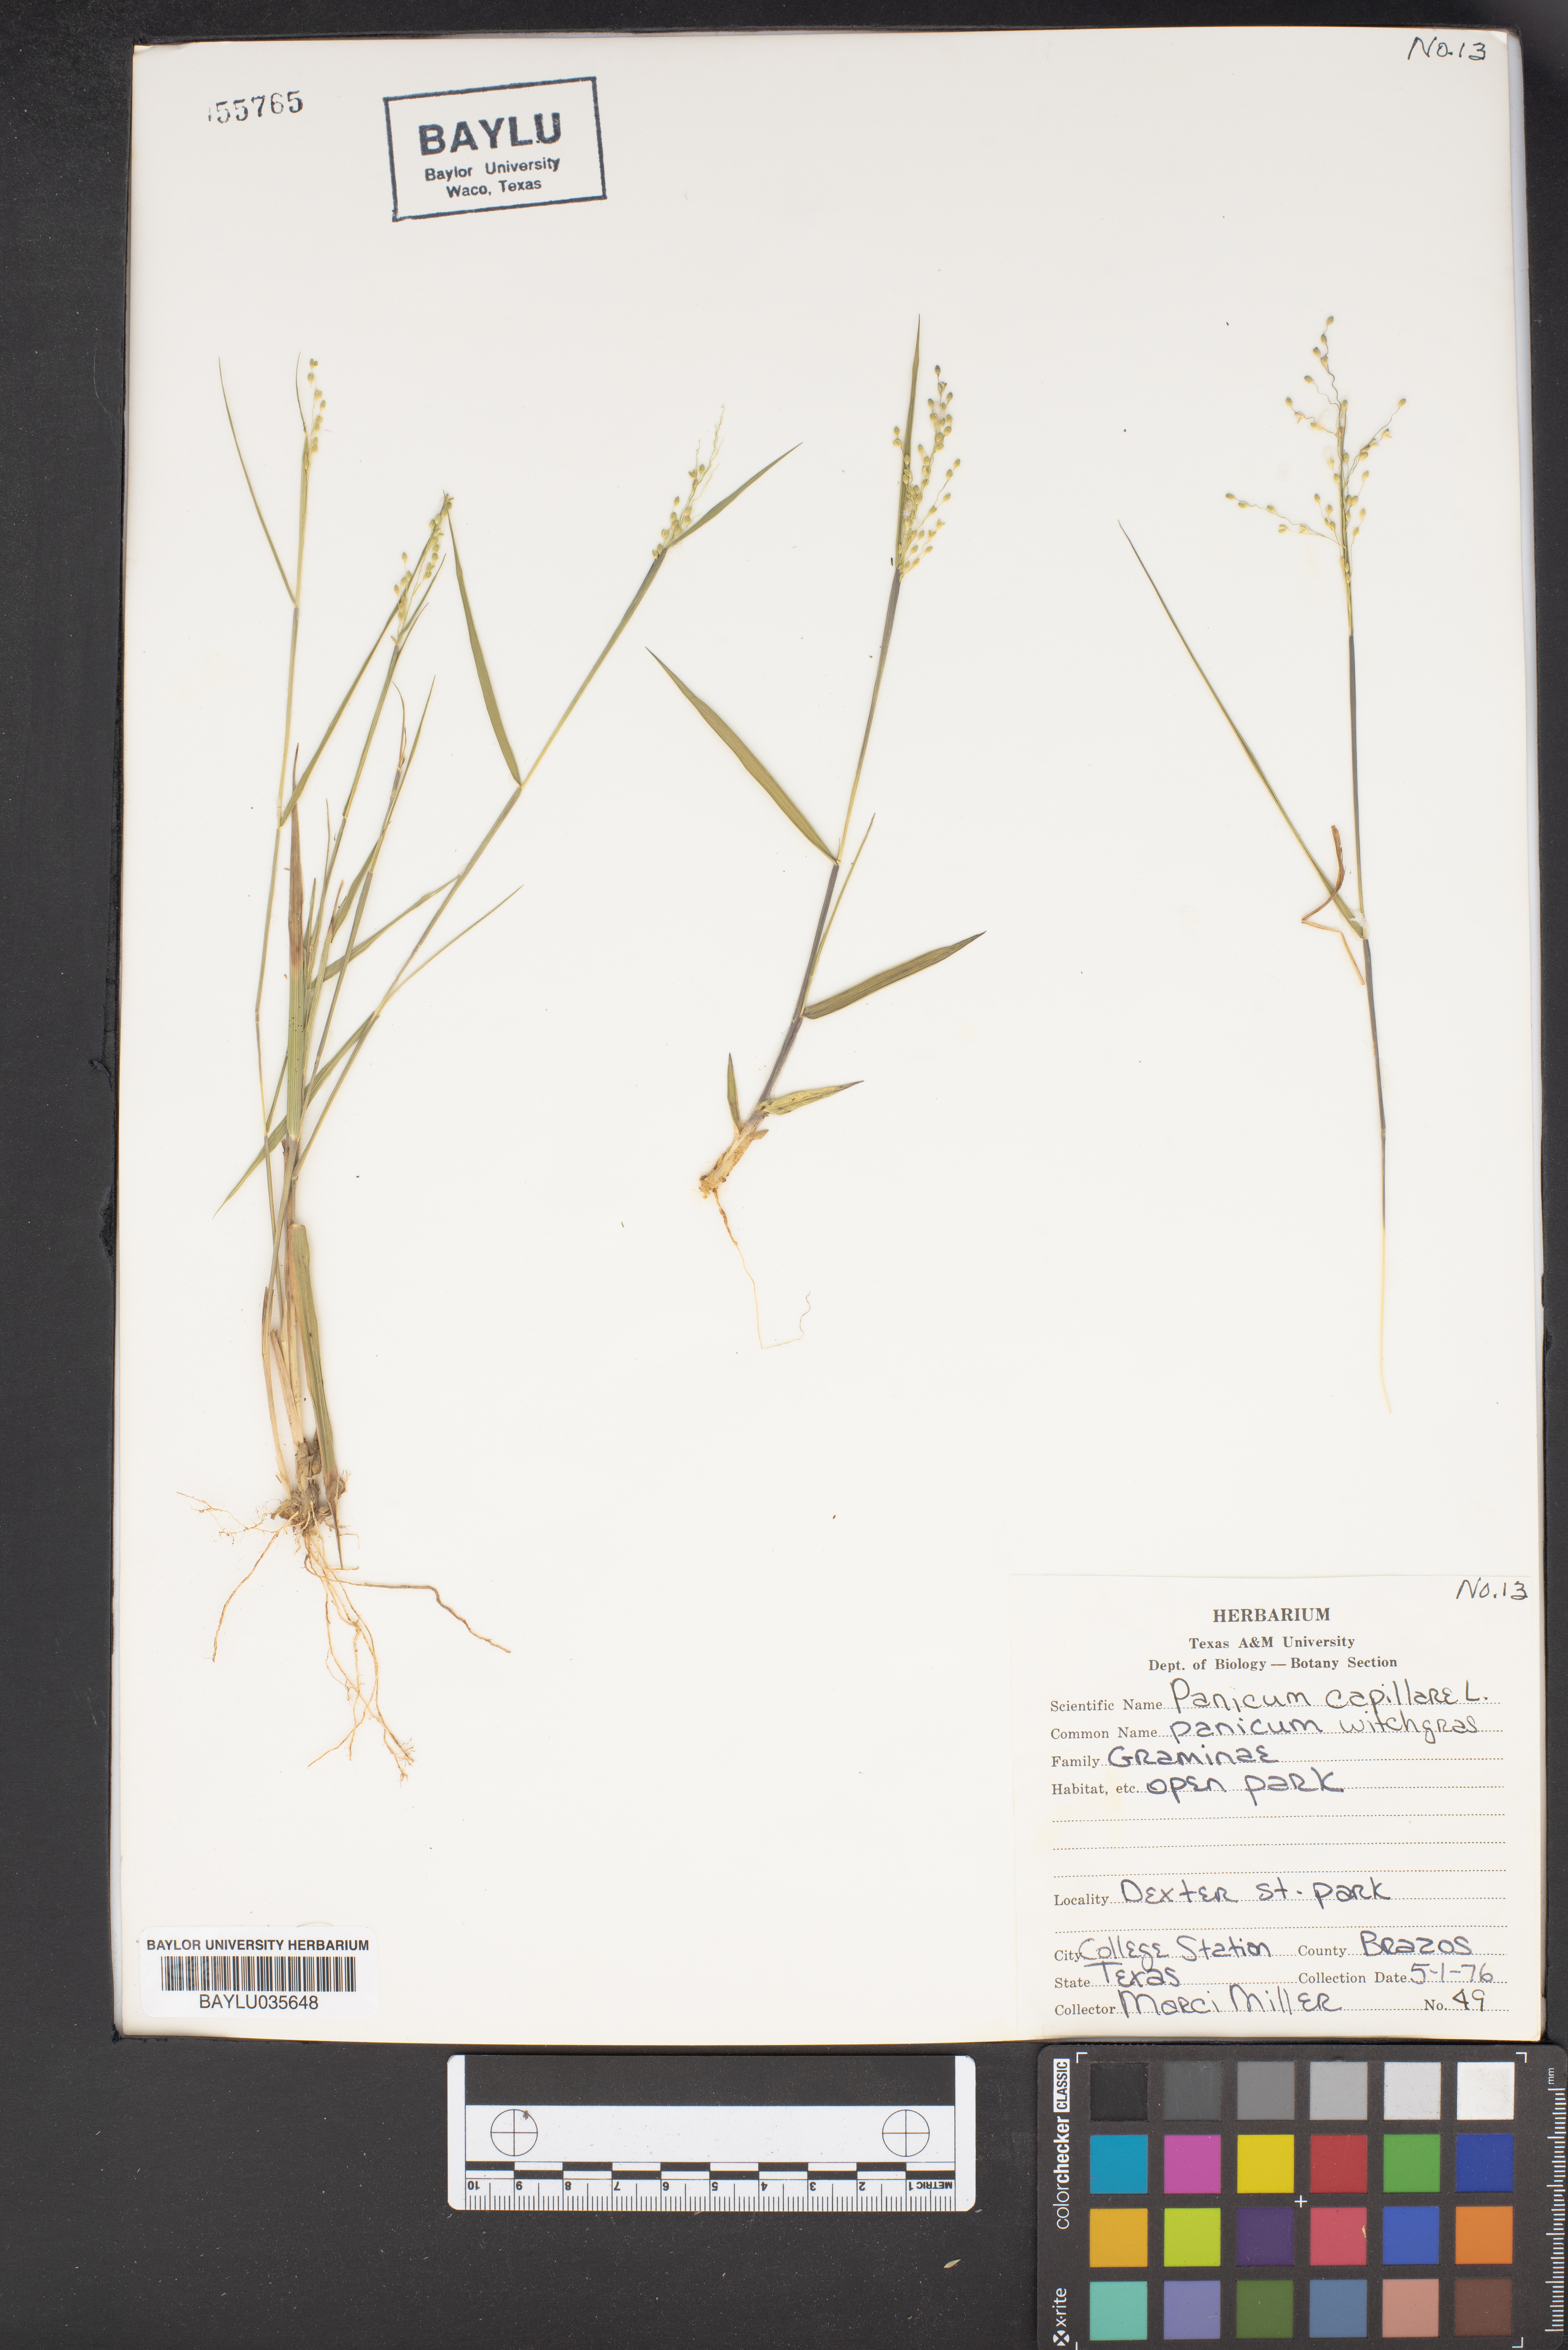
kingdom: Plantae
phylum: Tracheophyta
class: Liliopsida
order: Poales
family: Poaceae
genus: Panicum
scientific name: Panicum capillare
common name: Witch-grass
